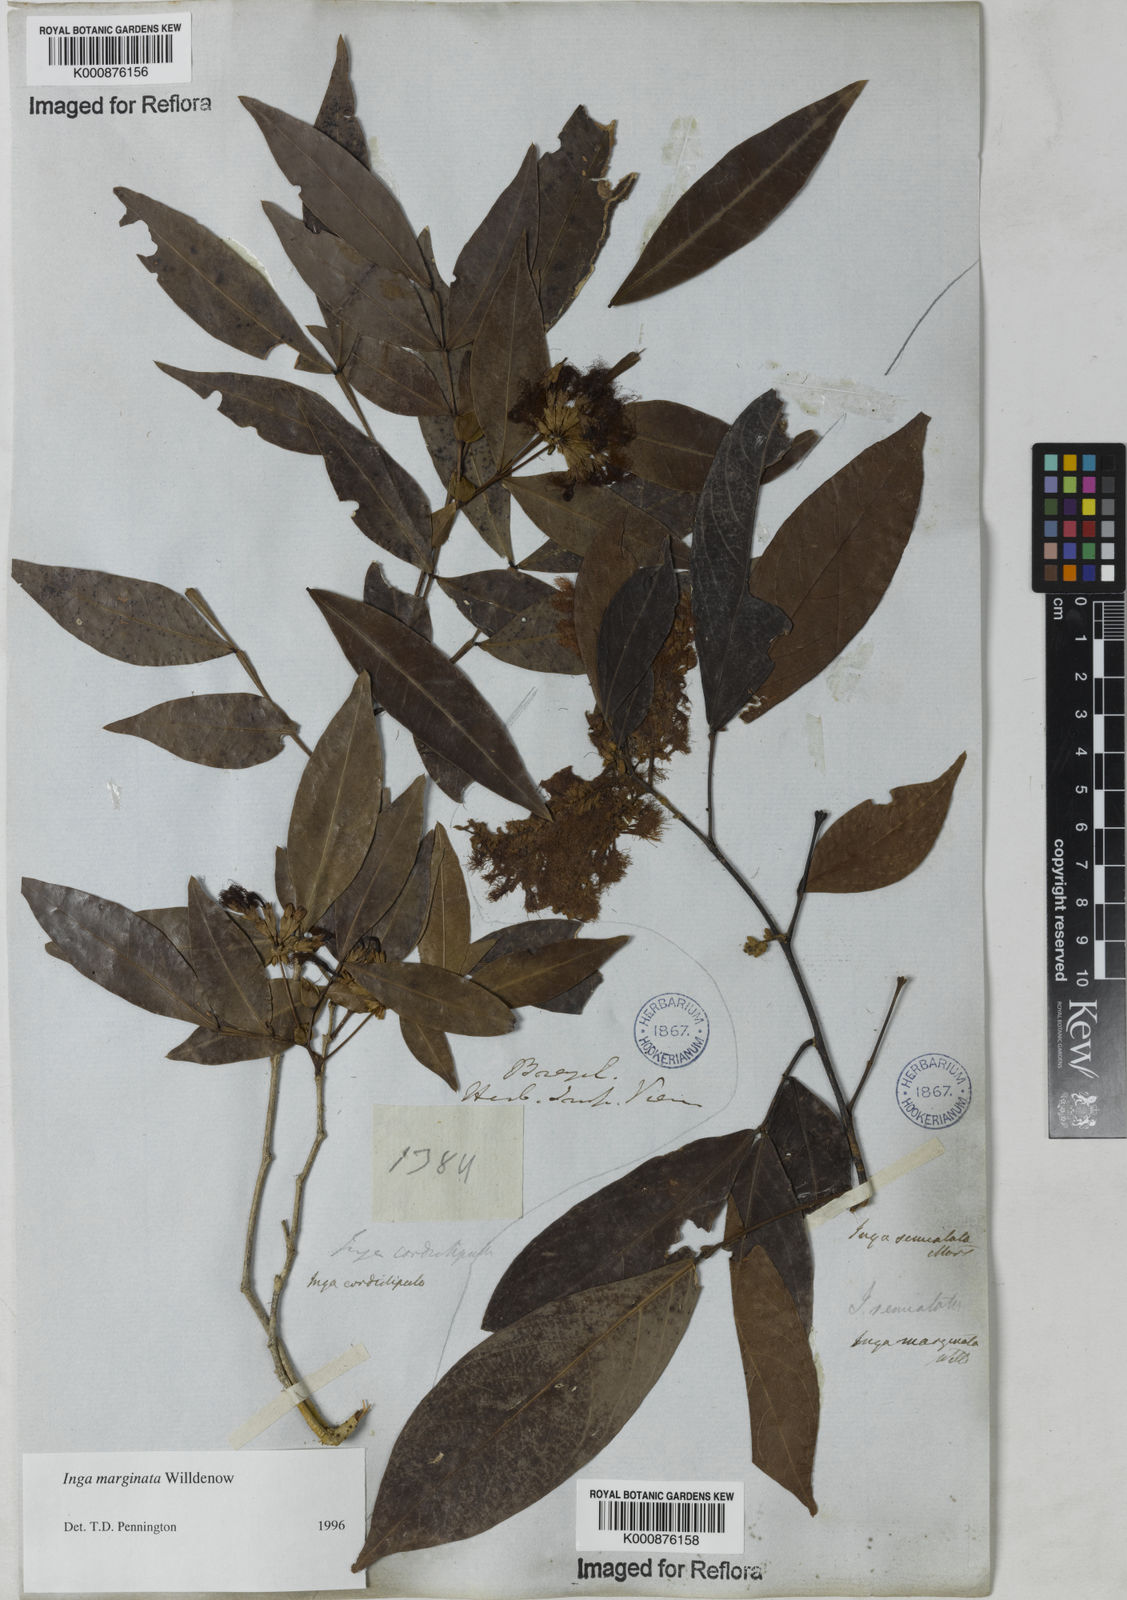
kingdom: Plantae
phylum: Tracheophyta
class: Magnoliopsida
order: Fabales
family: Fabaceae
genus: Inga
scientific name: Inga marginata
